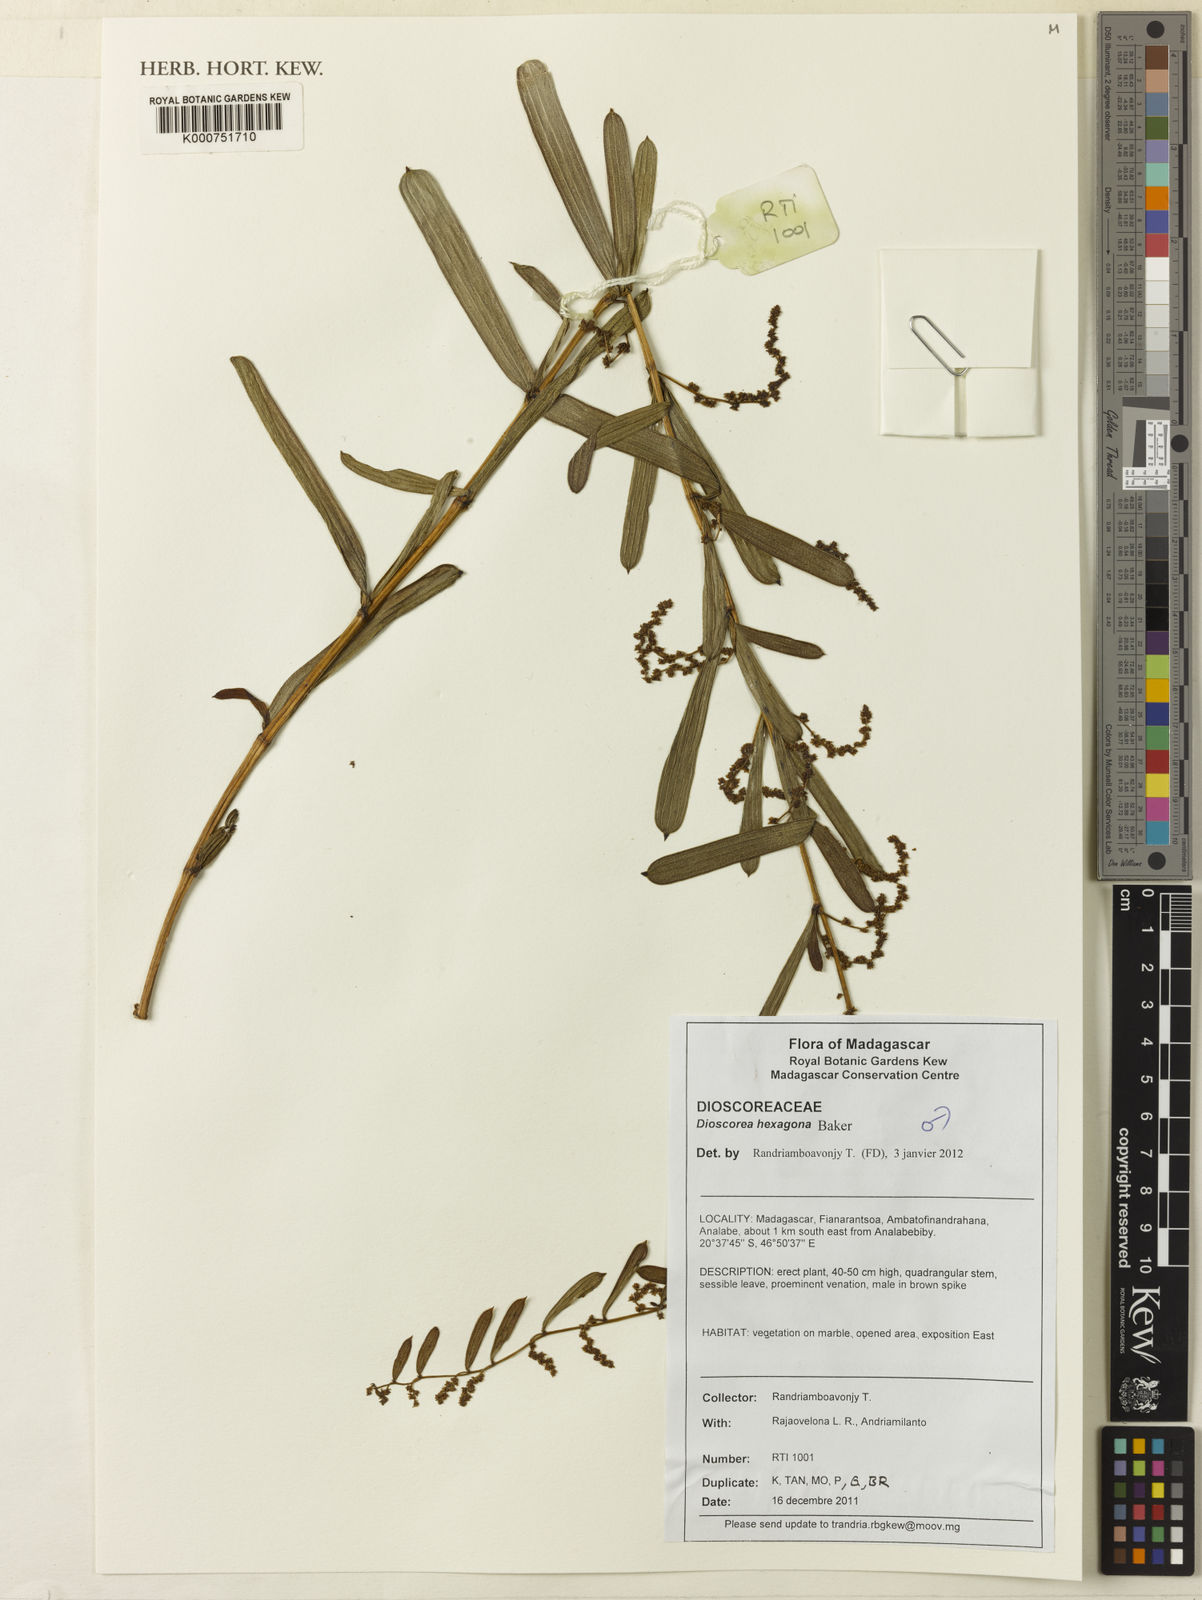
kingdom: Plantae
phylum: Tracheophyta
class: Liliopsida
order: Dioscoreales
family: Dioscoreaceae
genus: Dioscorea
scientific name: Dioscorea hexagona
